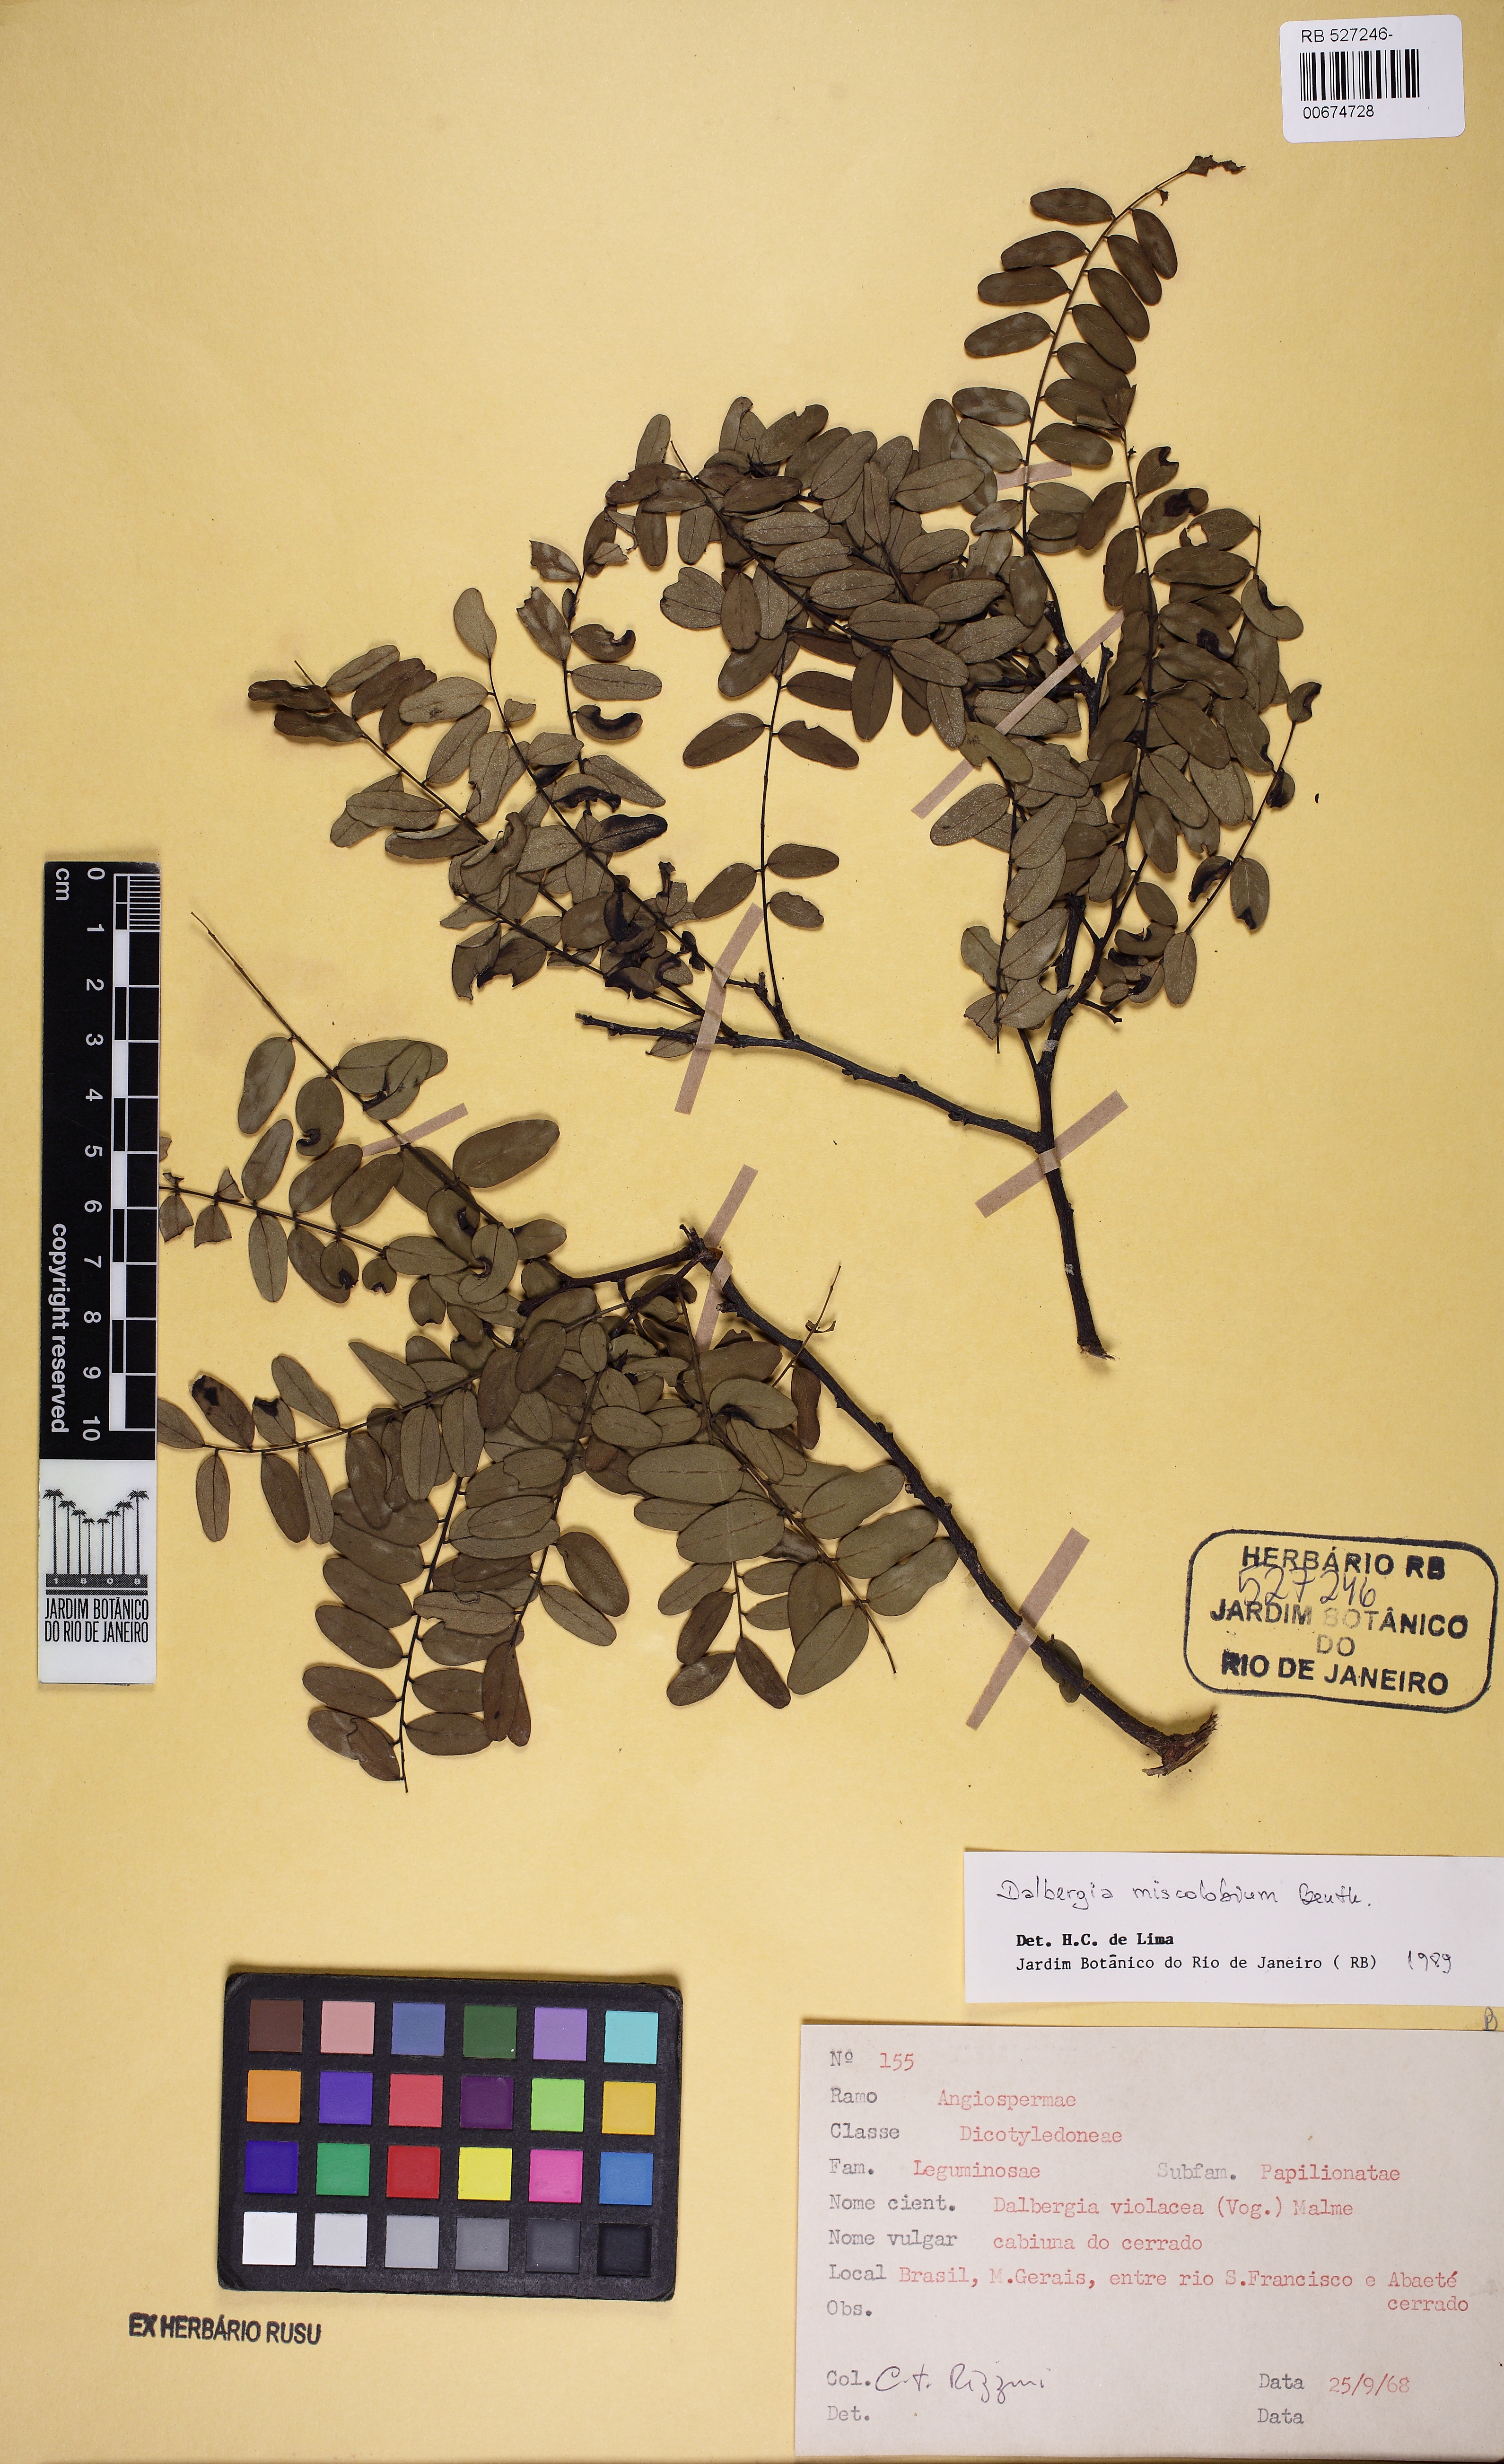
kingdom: Plantae
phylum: Tracheophyta
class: Magnoliopsida
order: Fabales
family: Fabaceae
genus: Dalbergia
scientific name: Dalbergia miscolobium
